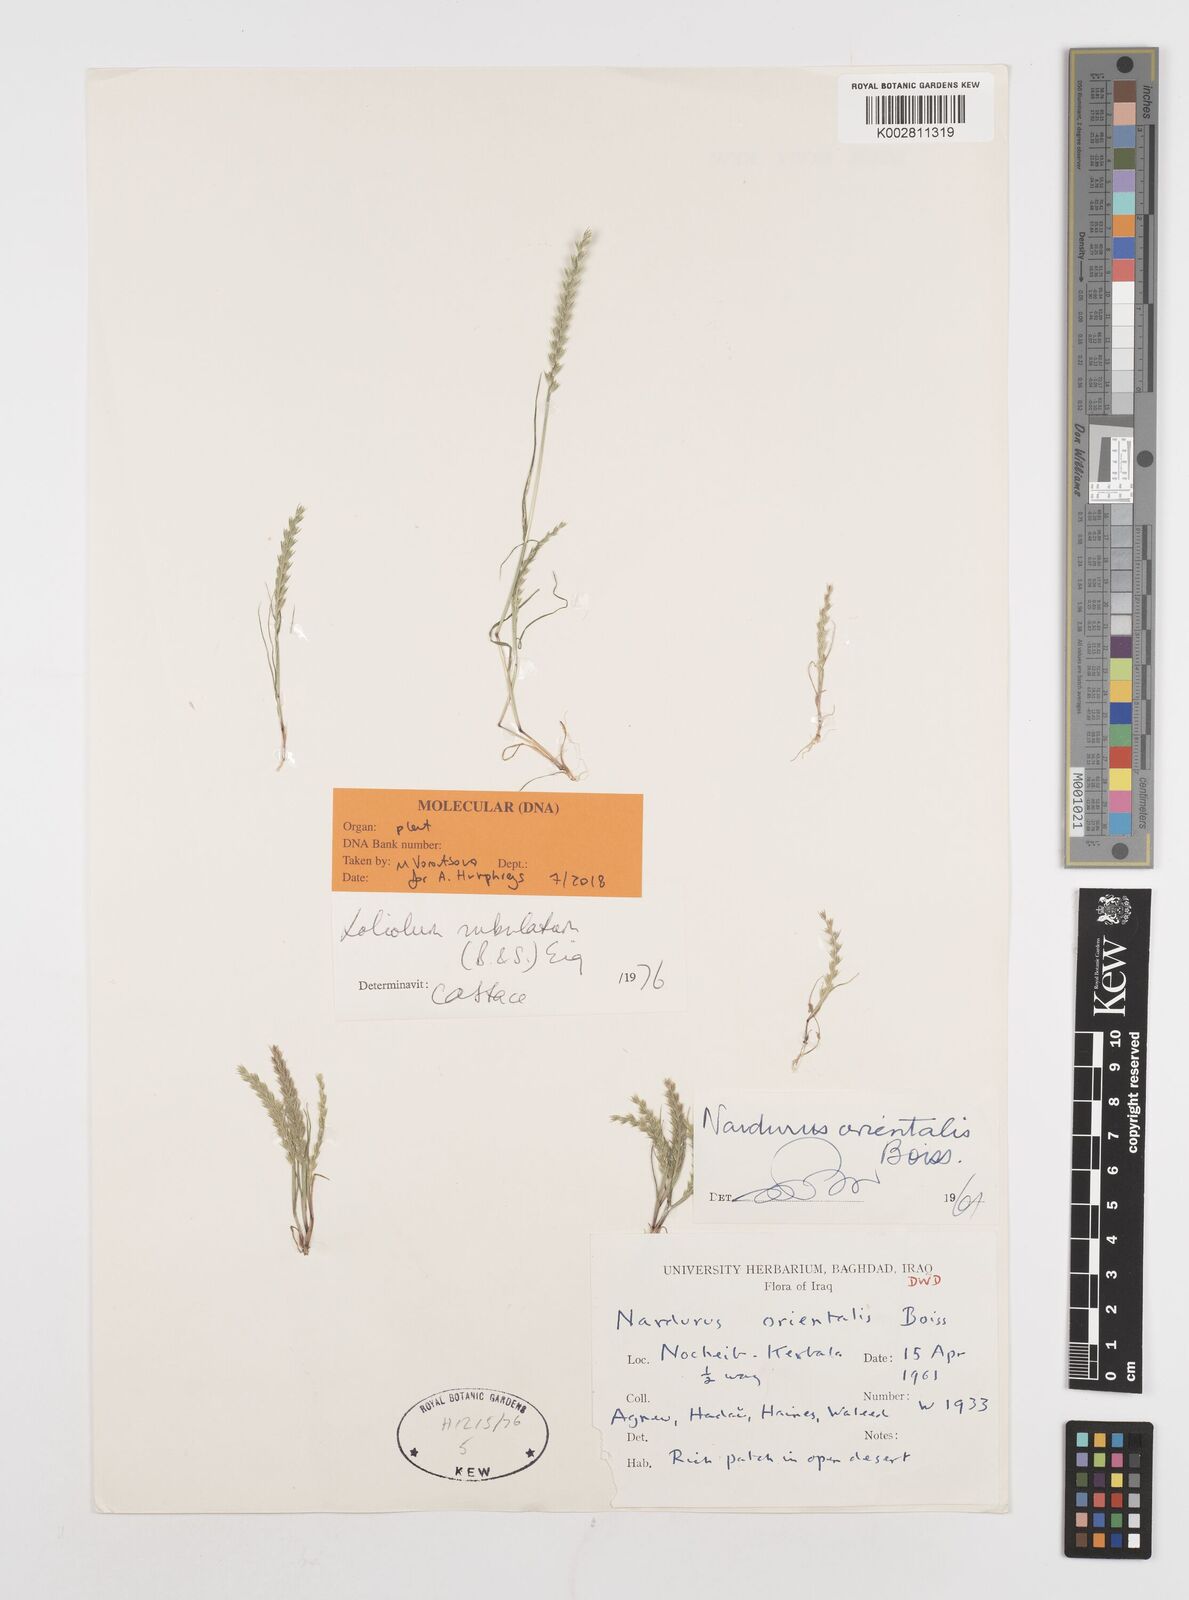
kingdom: Plantae
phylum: Tracheophyta
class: Liliopsida
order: Poales
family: Poaceae
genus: Festuca
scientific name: Festuca orientalis
